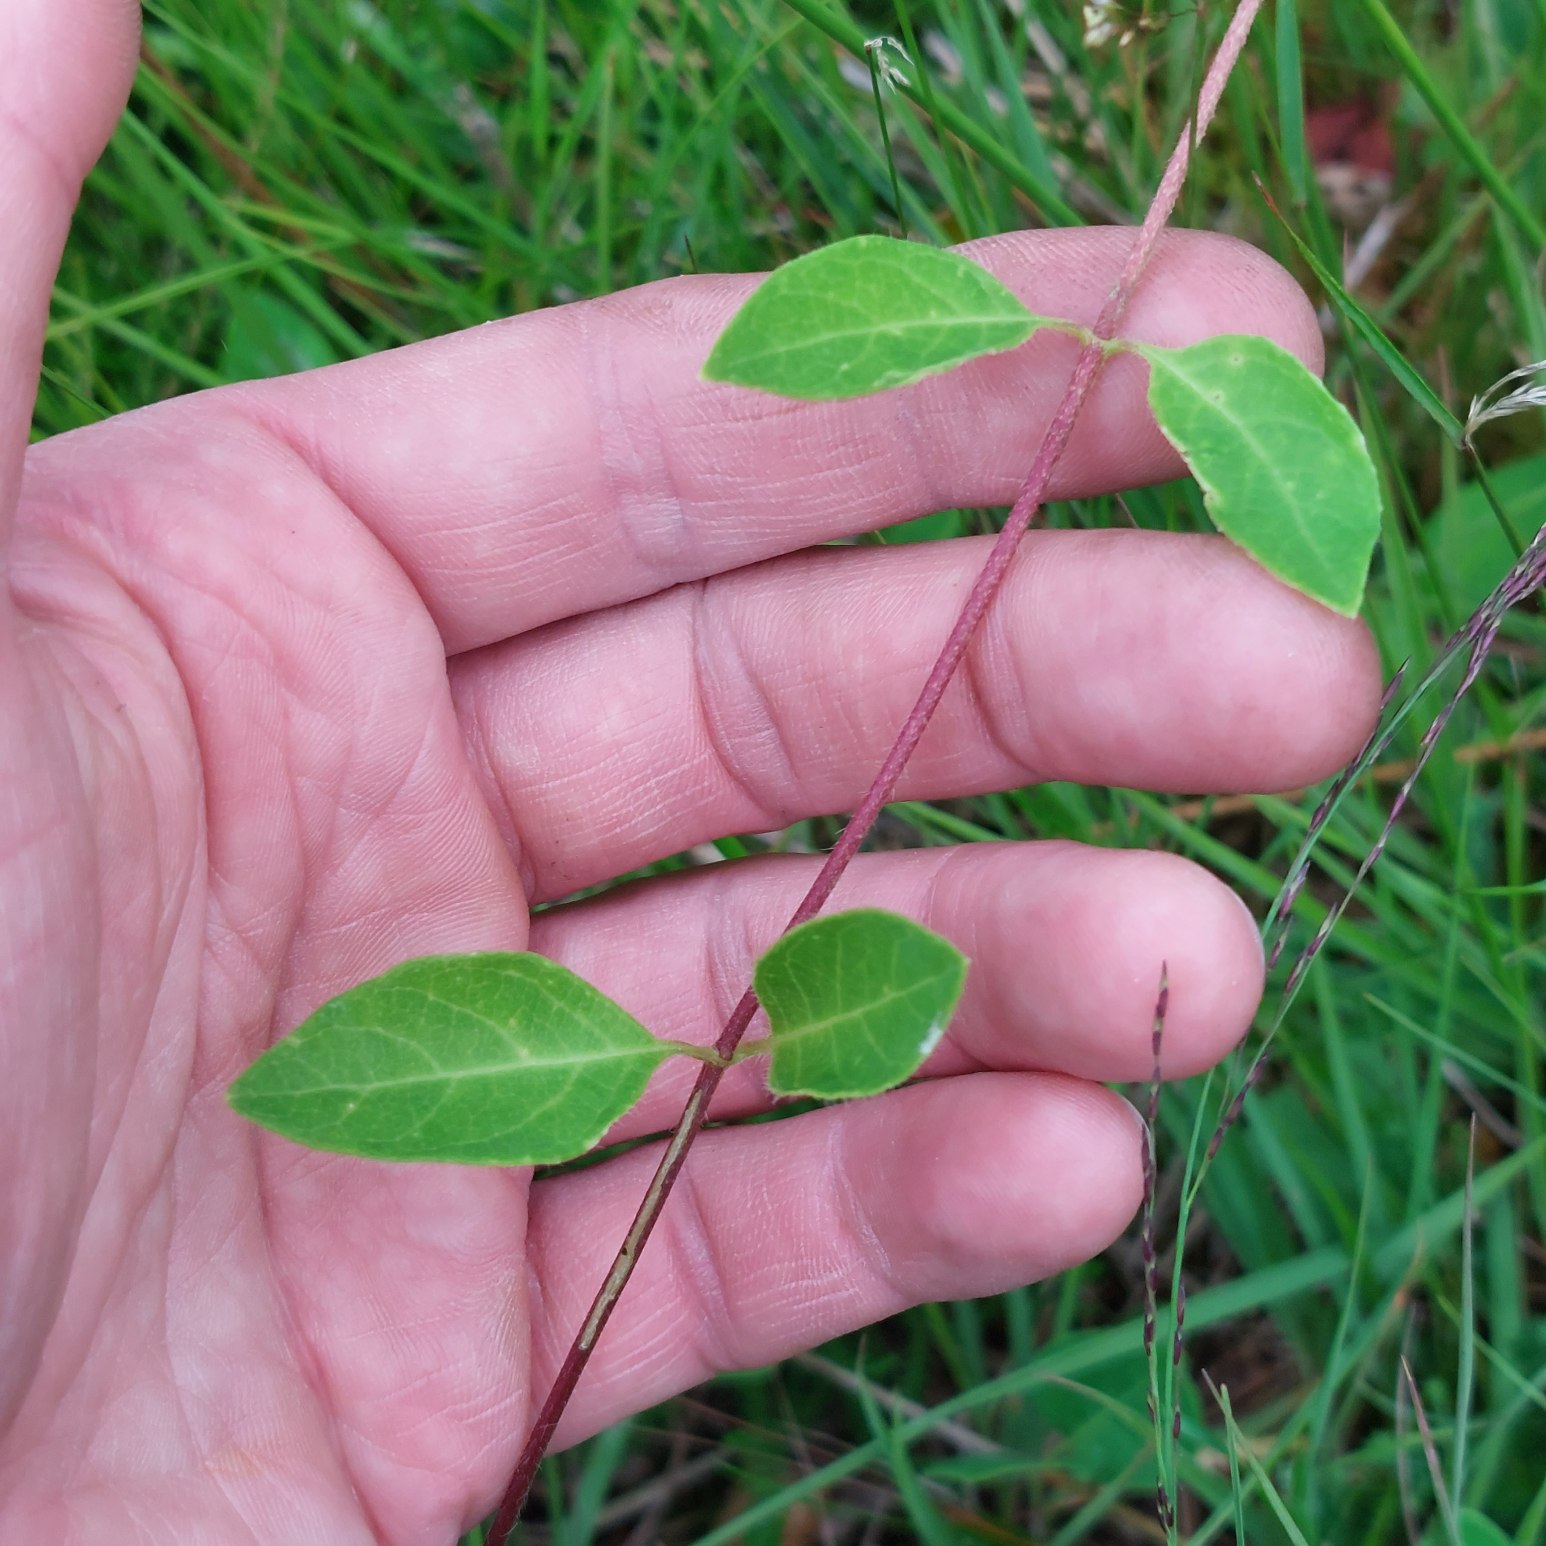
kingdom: Plantae
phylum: Tracheophyta
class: Magnoliopsida
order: Dipsacales
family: Caprifoliaceae
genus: Lonicera
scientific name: Lonicera periclymenum
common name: Almindelig gedeblad
